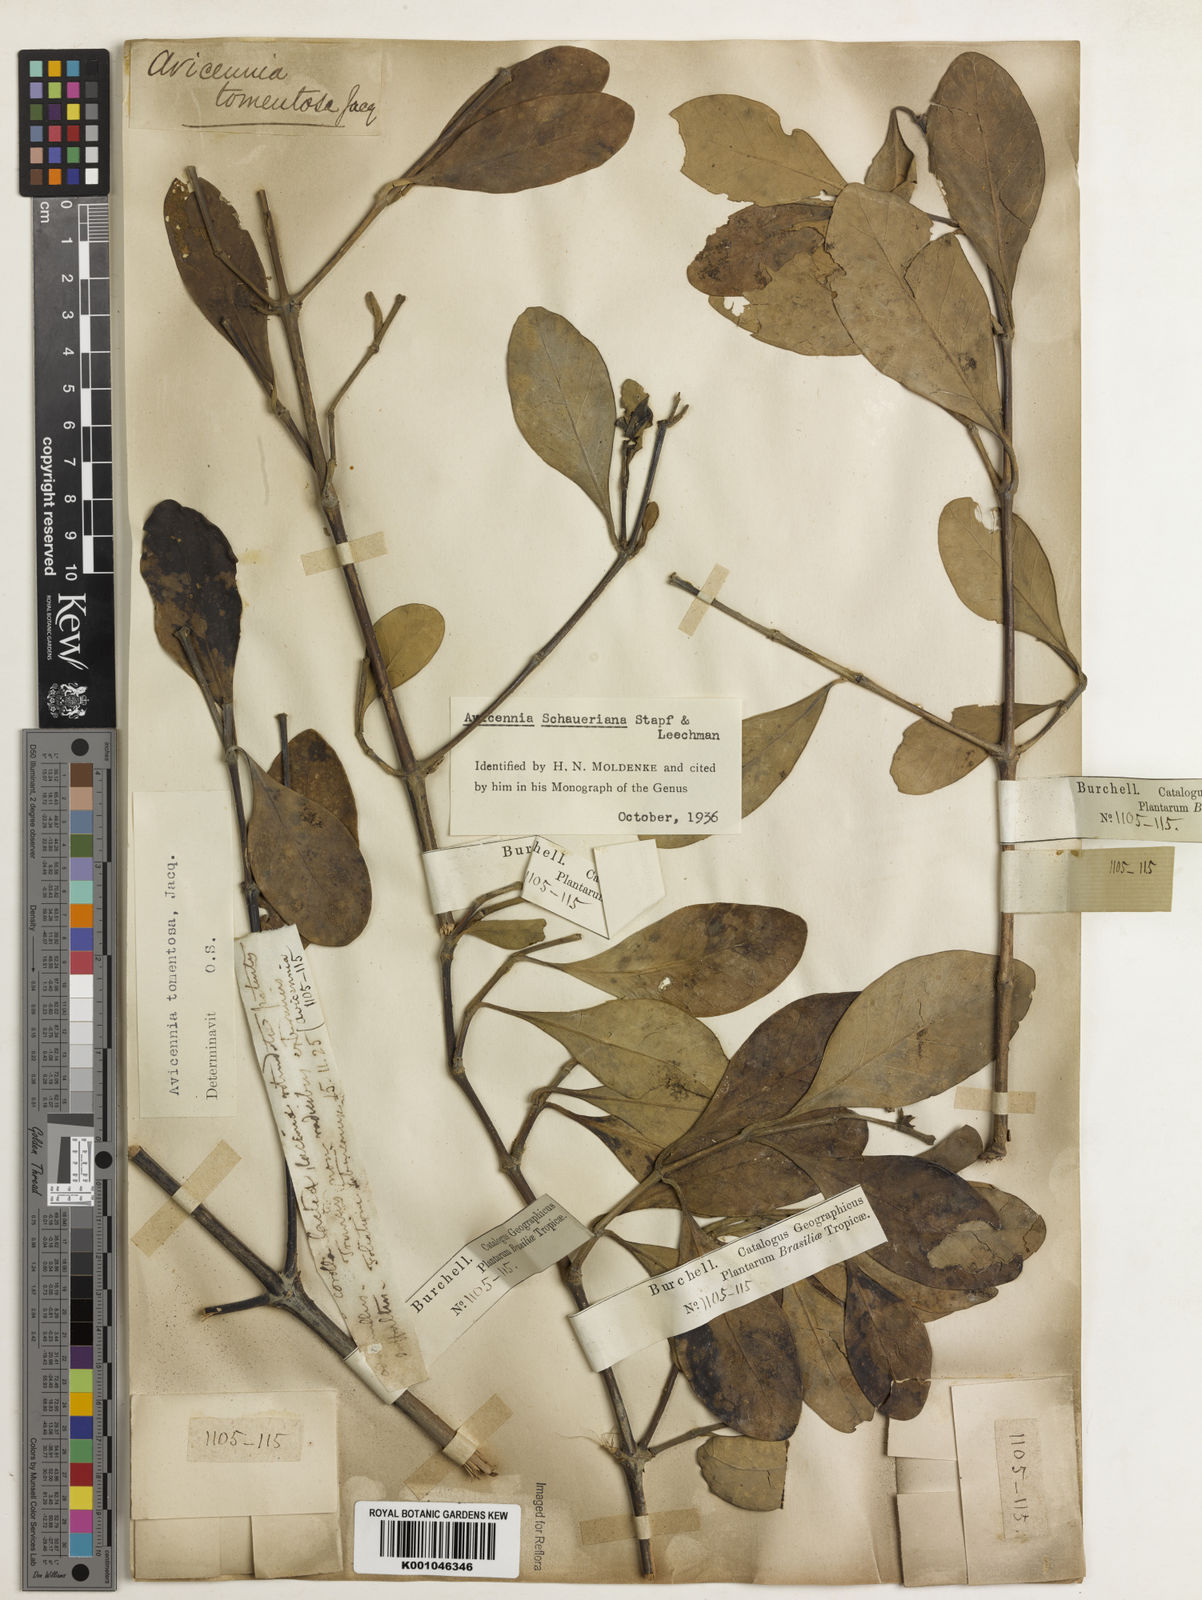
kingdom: Plantae
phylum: Tracheophyta
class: Magnoliopsida
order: Lamiales
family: Acanthaceae
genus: Avicennia
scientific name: Avicennia schaueriana
